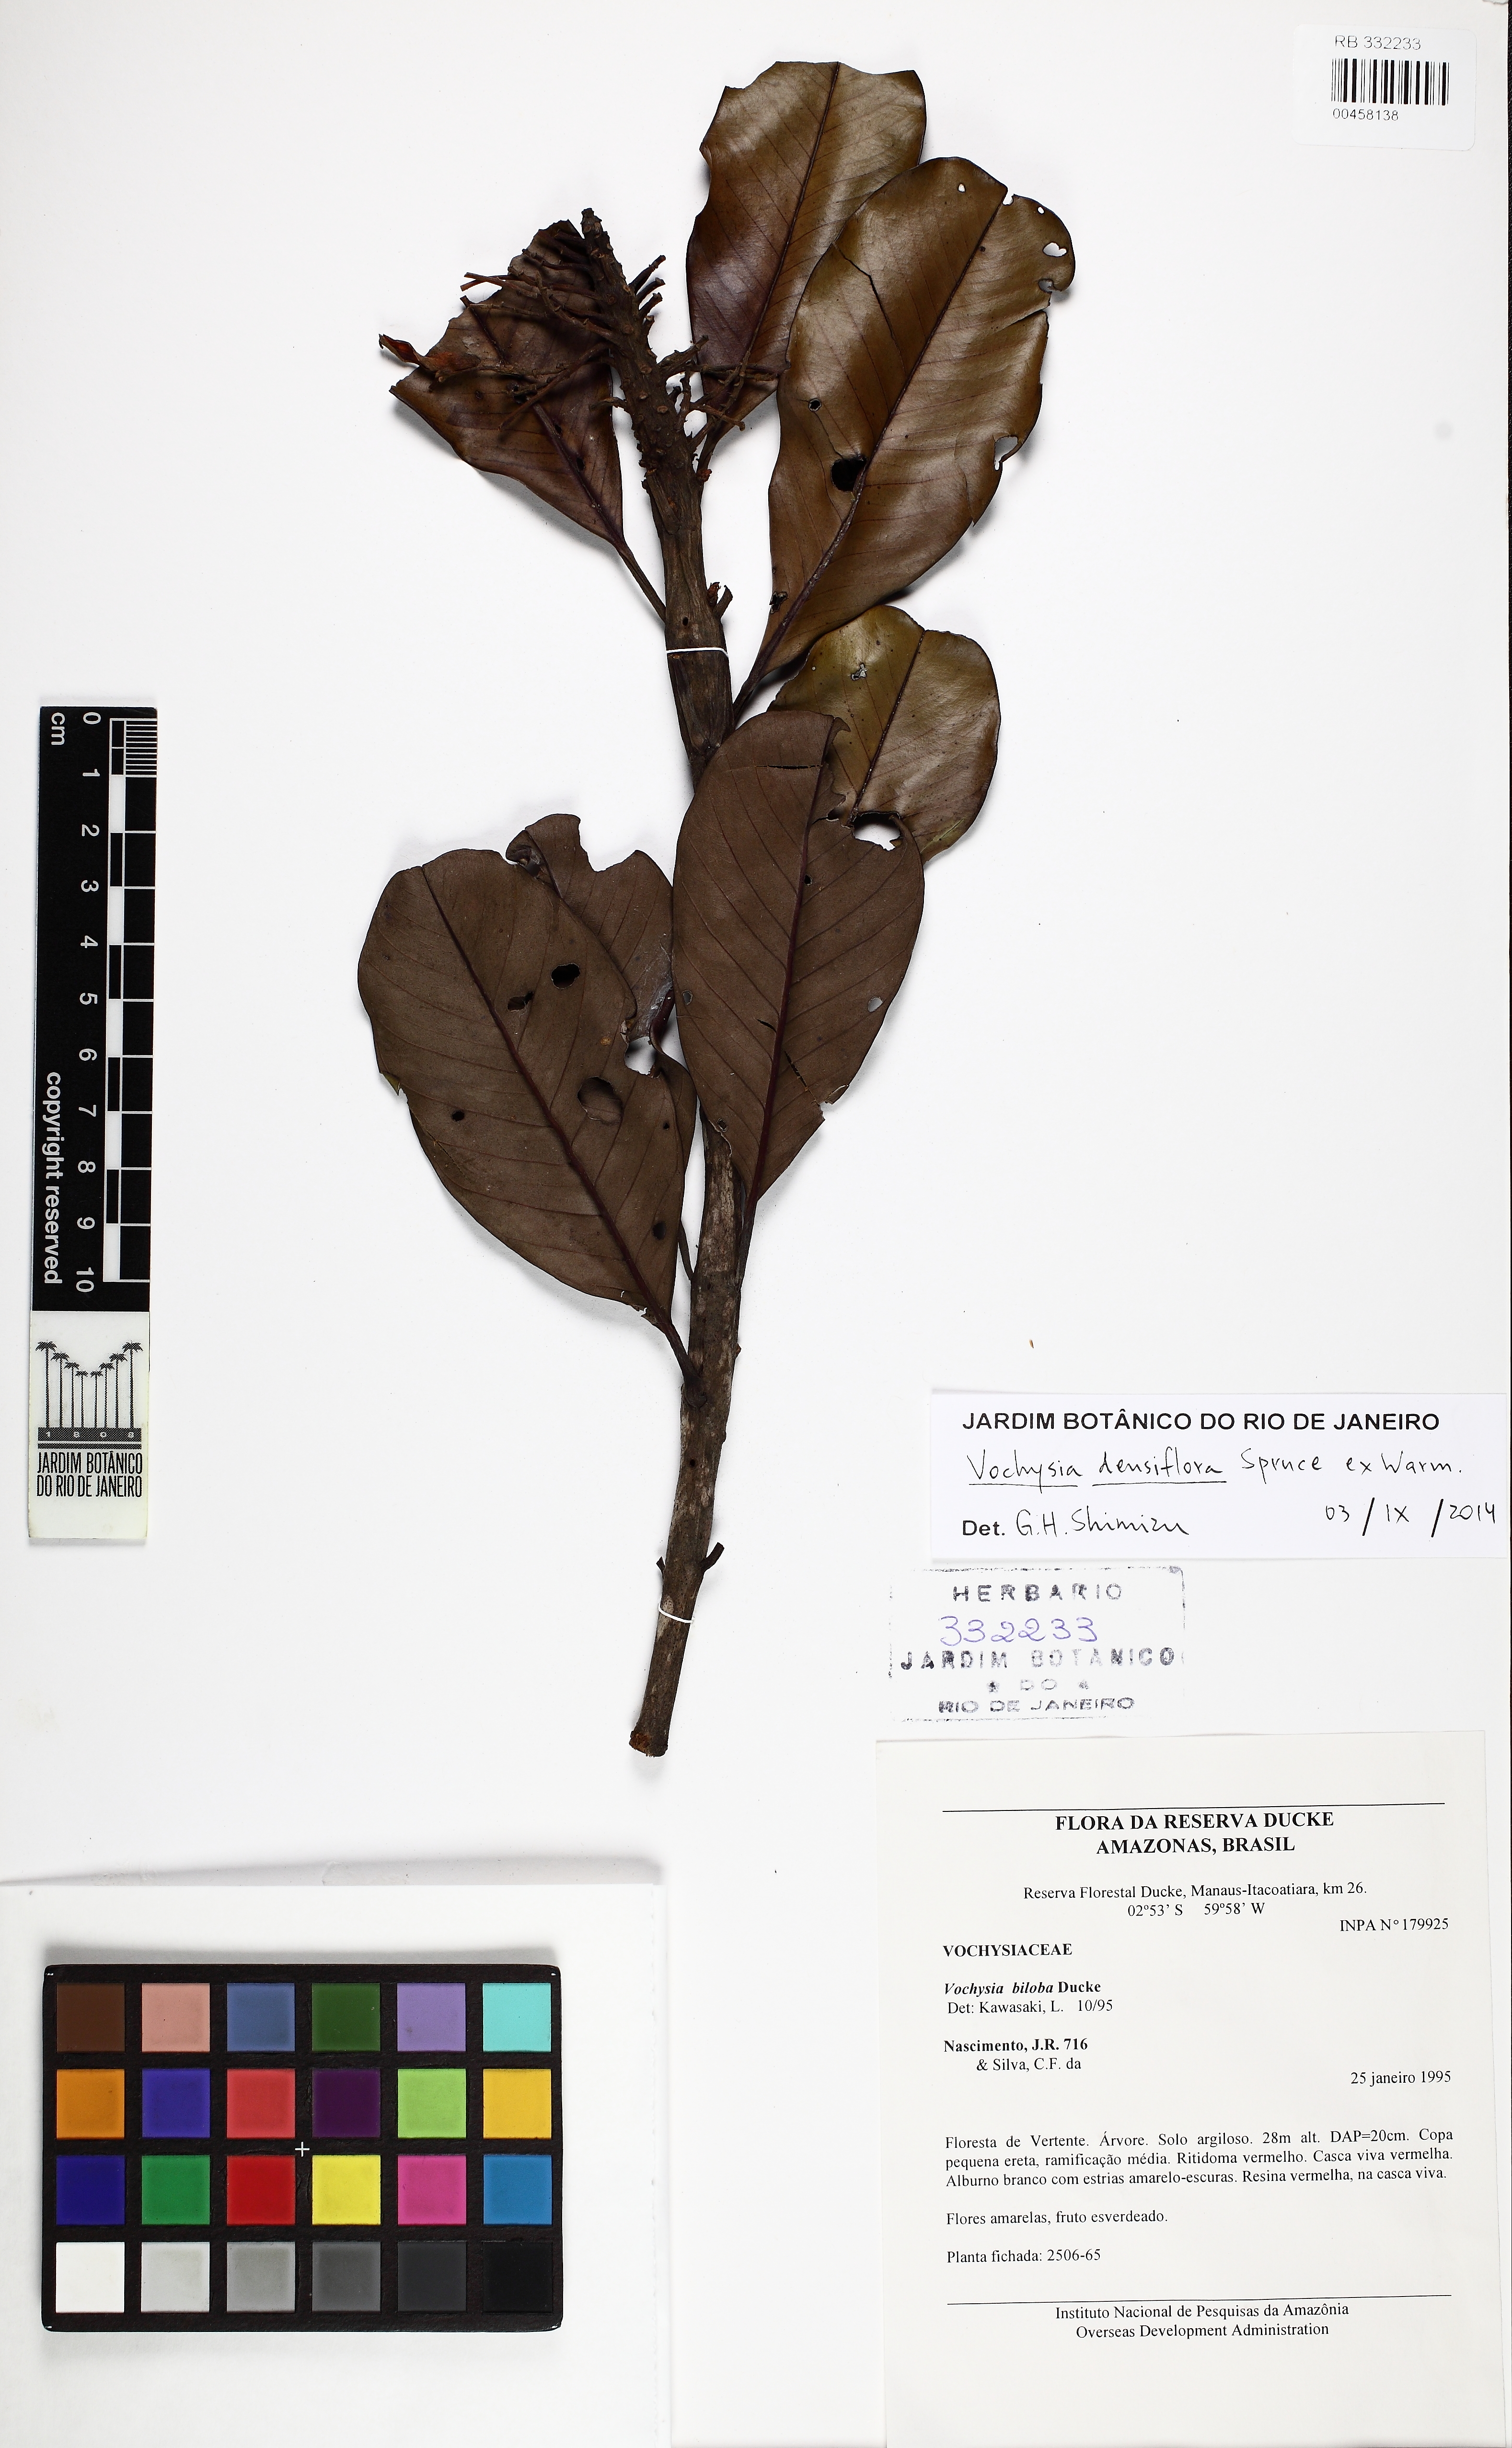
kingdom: Plantae
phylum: Tracheophyta
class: Magnoliopsida
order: Myrtales
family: Vochysiaceae
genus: Vochysia
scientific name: Vochysia densiflora
